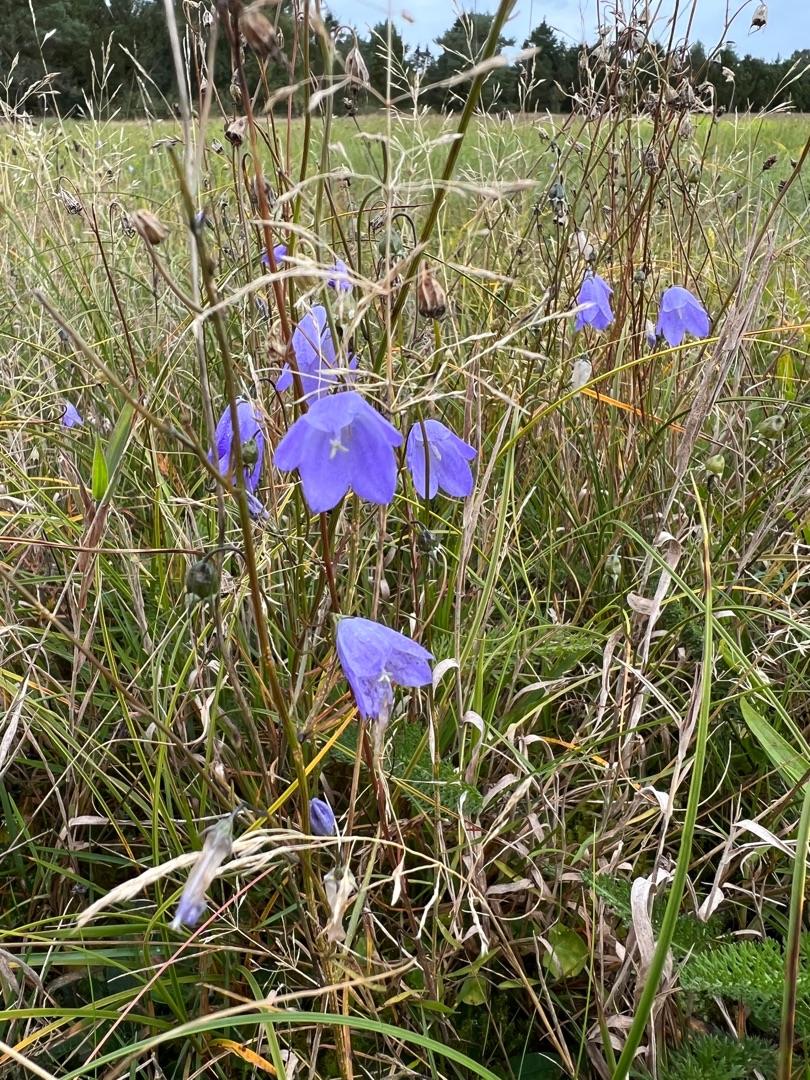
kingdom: Plantae
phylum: Tracheophyta
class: Magnoliopsida
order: Asterales
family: Campanulaceae
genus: Campanula
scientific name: Campanula rotundifolia
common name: Liden klokke
